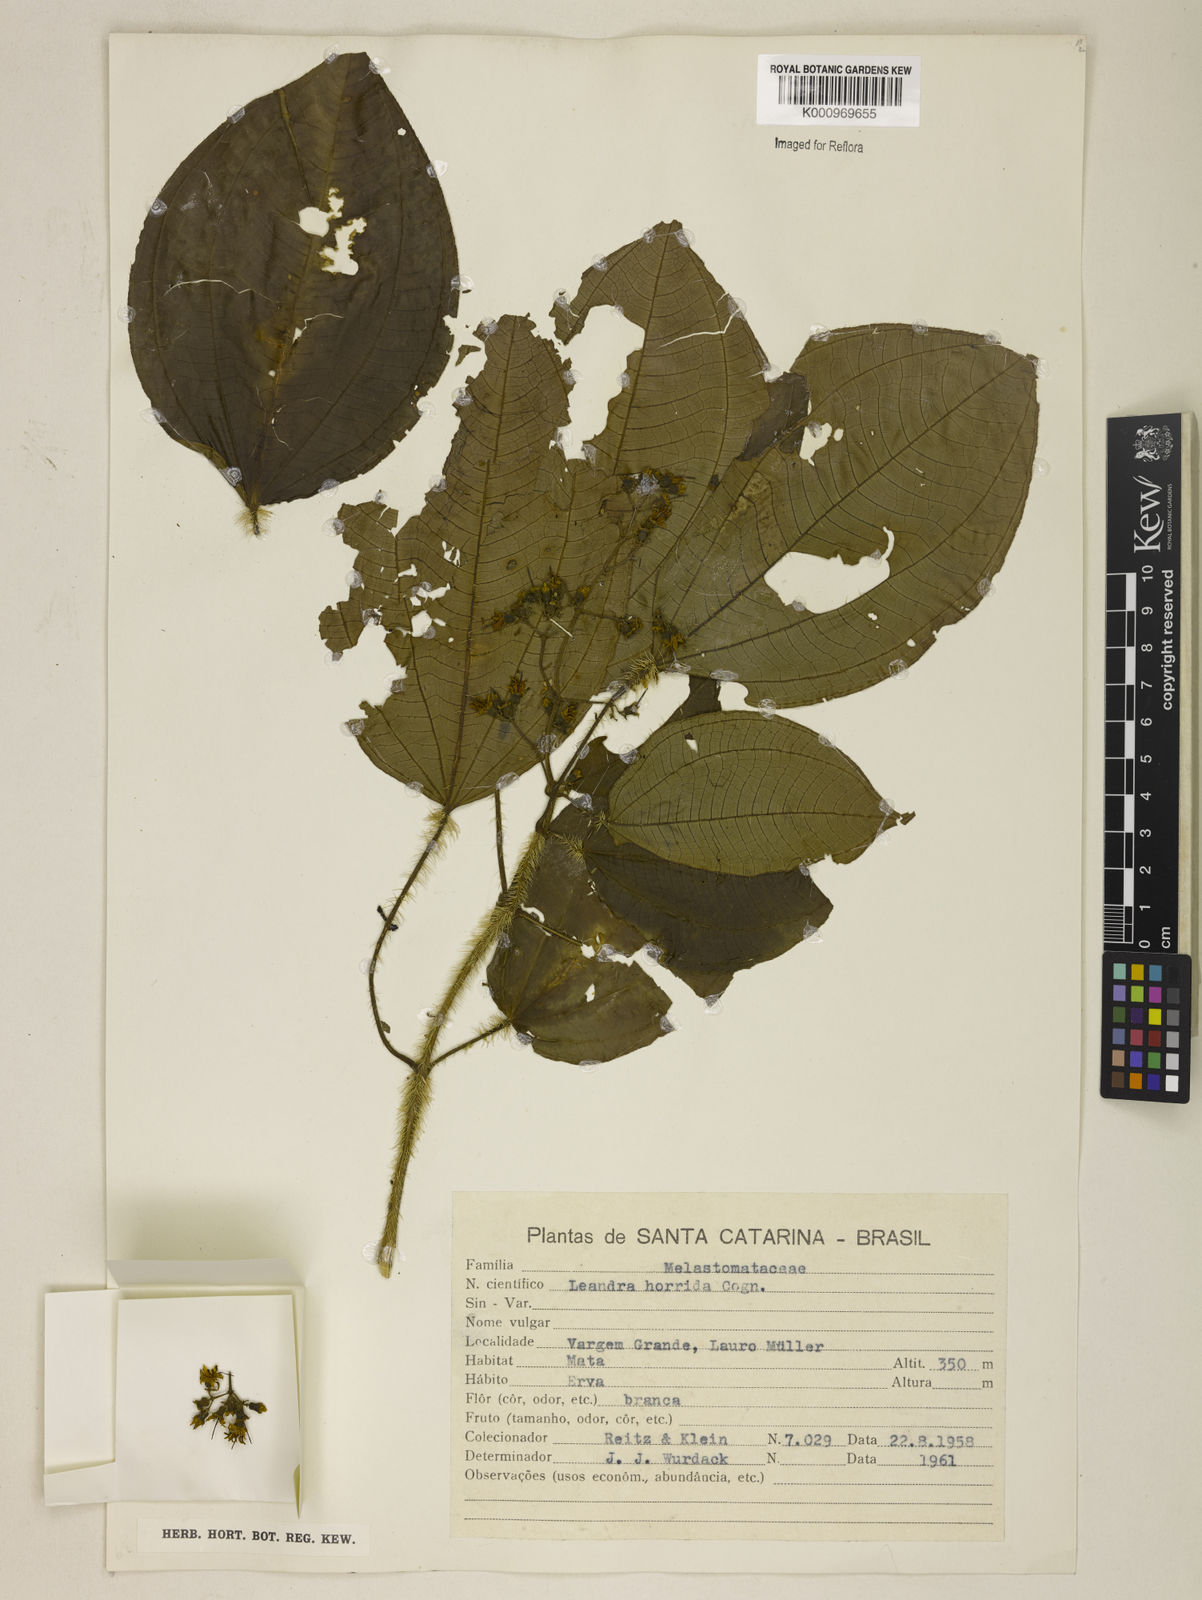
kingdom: Plantae
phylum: Tracheophyta
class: Magnoliopsida
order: Myrtales
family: Melastomataceae
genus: Miconia
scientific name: Miconia leaechinata
